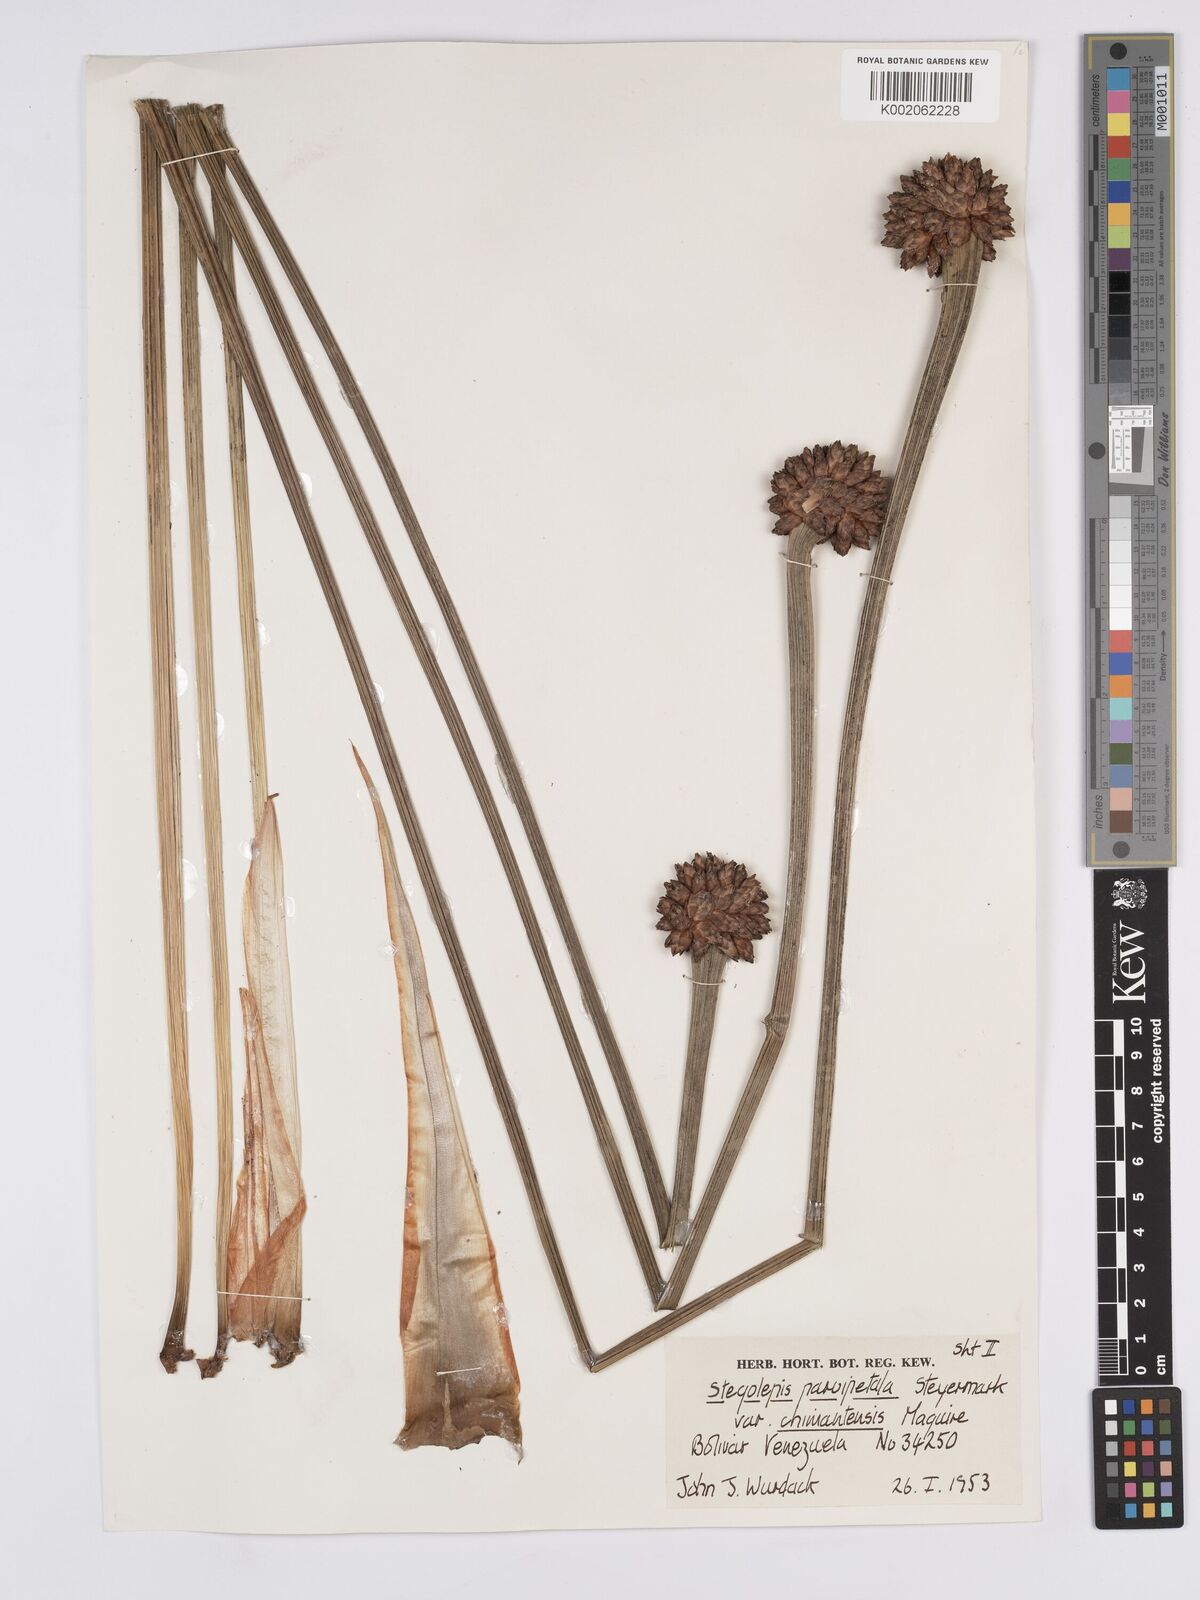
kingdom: Plantae
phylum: Tracheophyta
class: Liliopsida
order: Poales
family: Rapateaceae
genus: Stegolepis
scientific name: Stegolepis parvipetala
